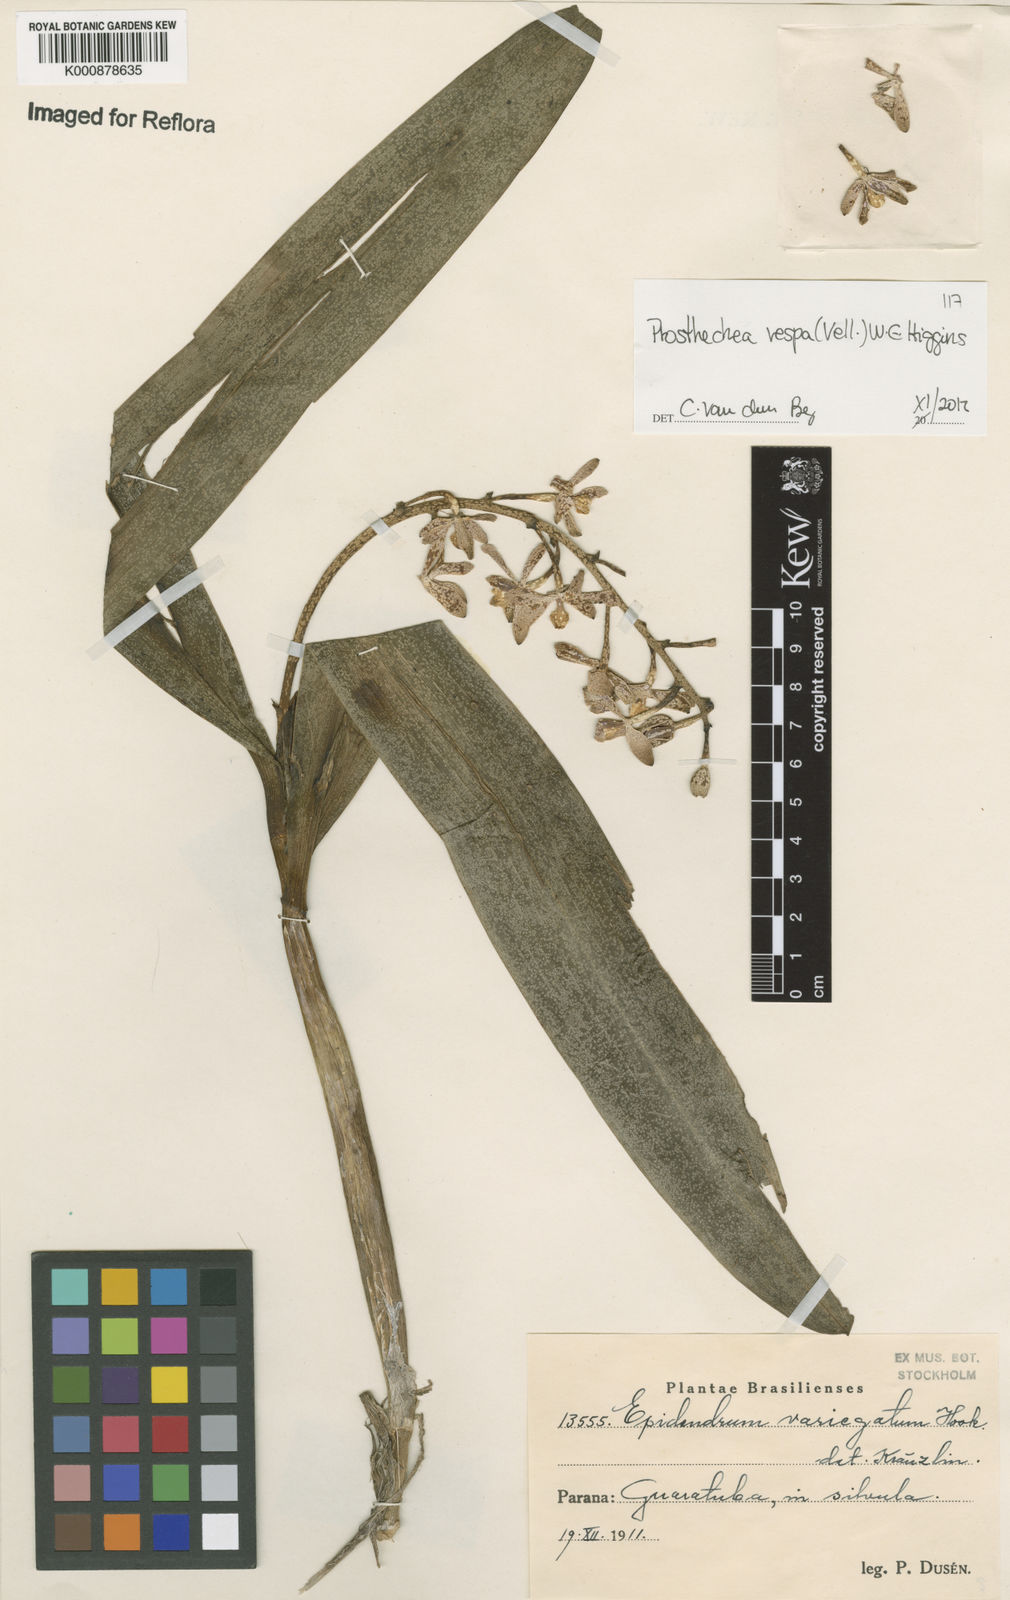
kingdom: Plantae
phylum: Tracheophyta
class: Liliopsida
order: Asparagales
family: Orchidaceae
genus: Prosthechea
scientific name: Prosthechea vespa
